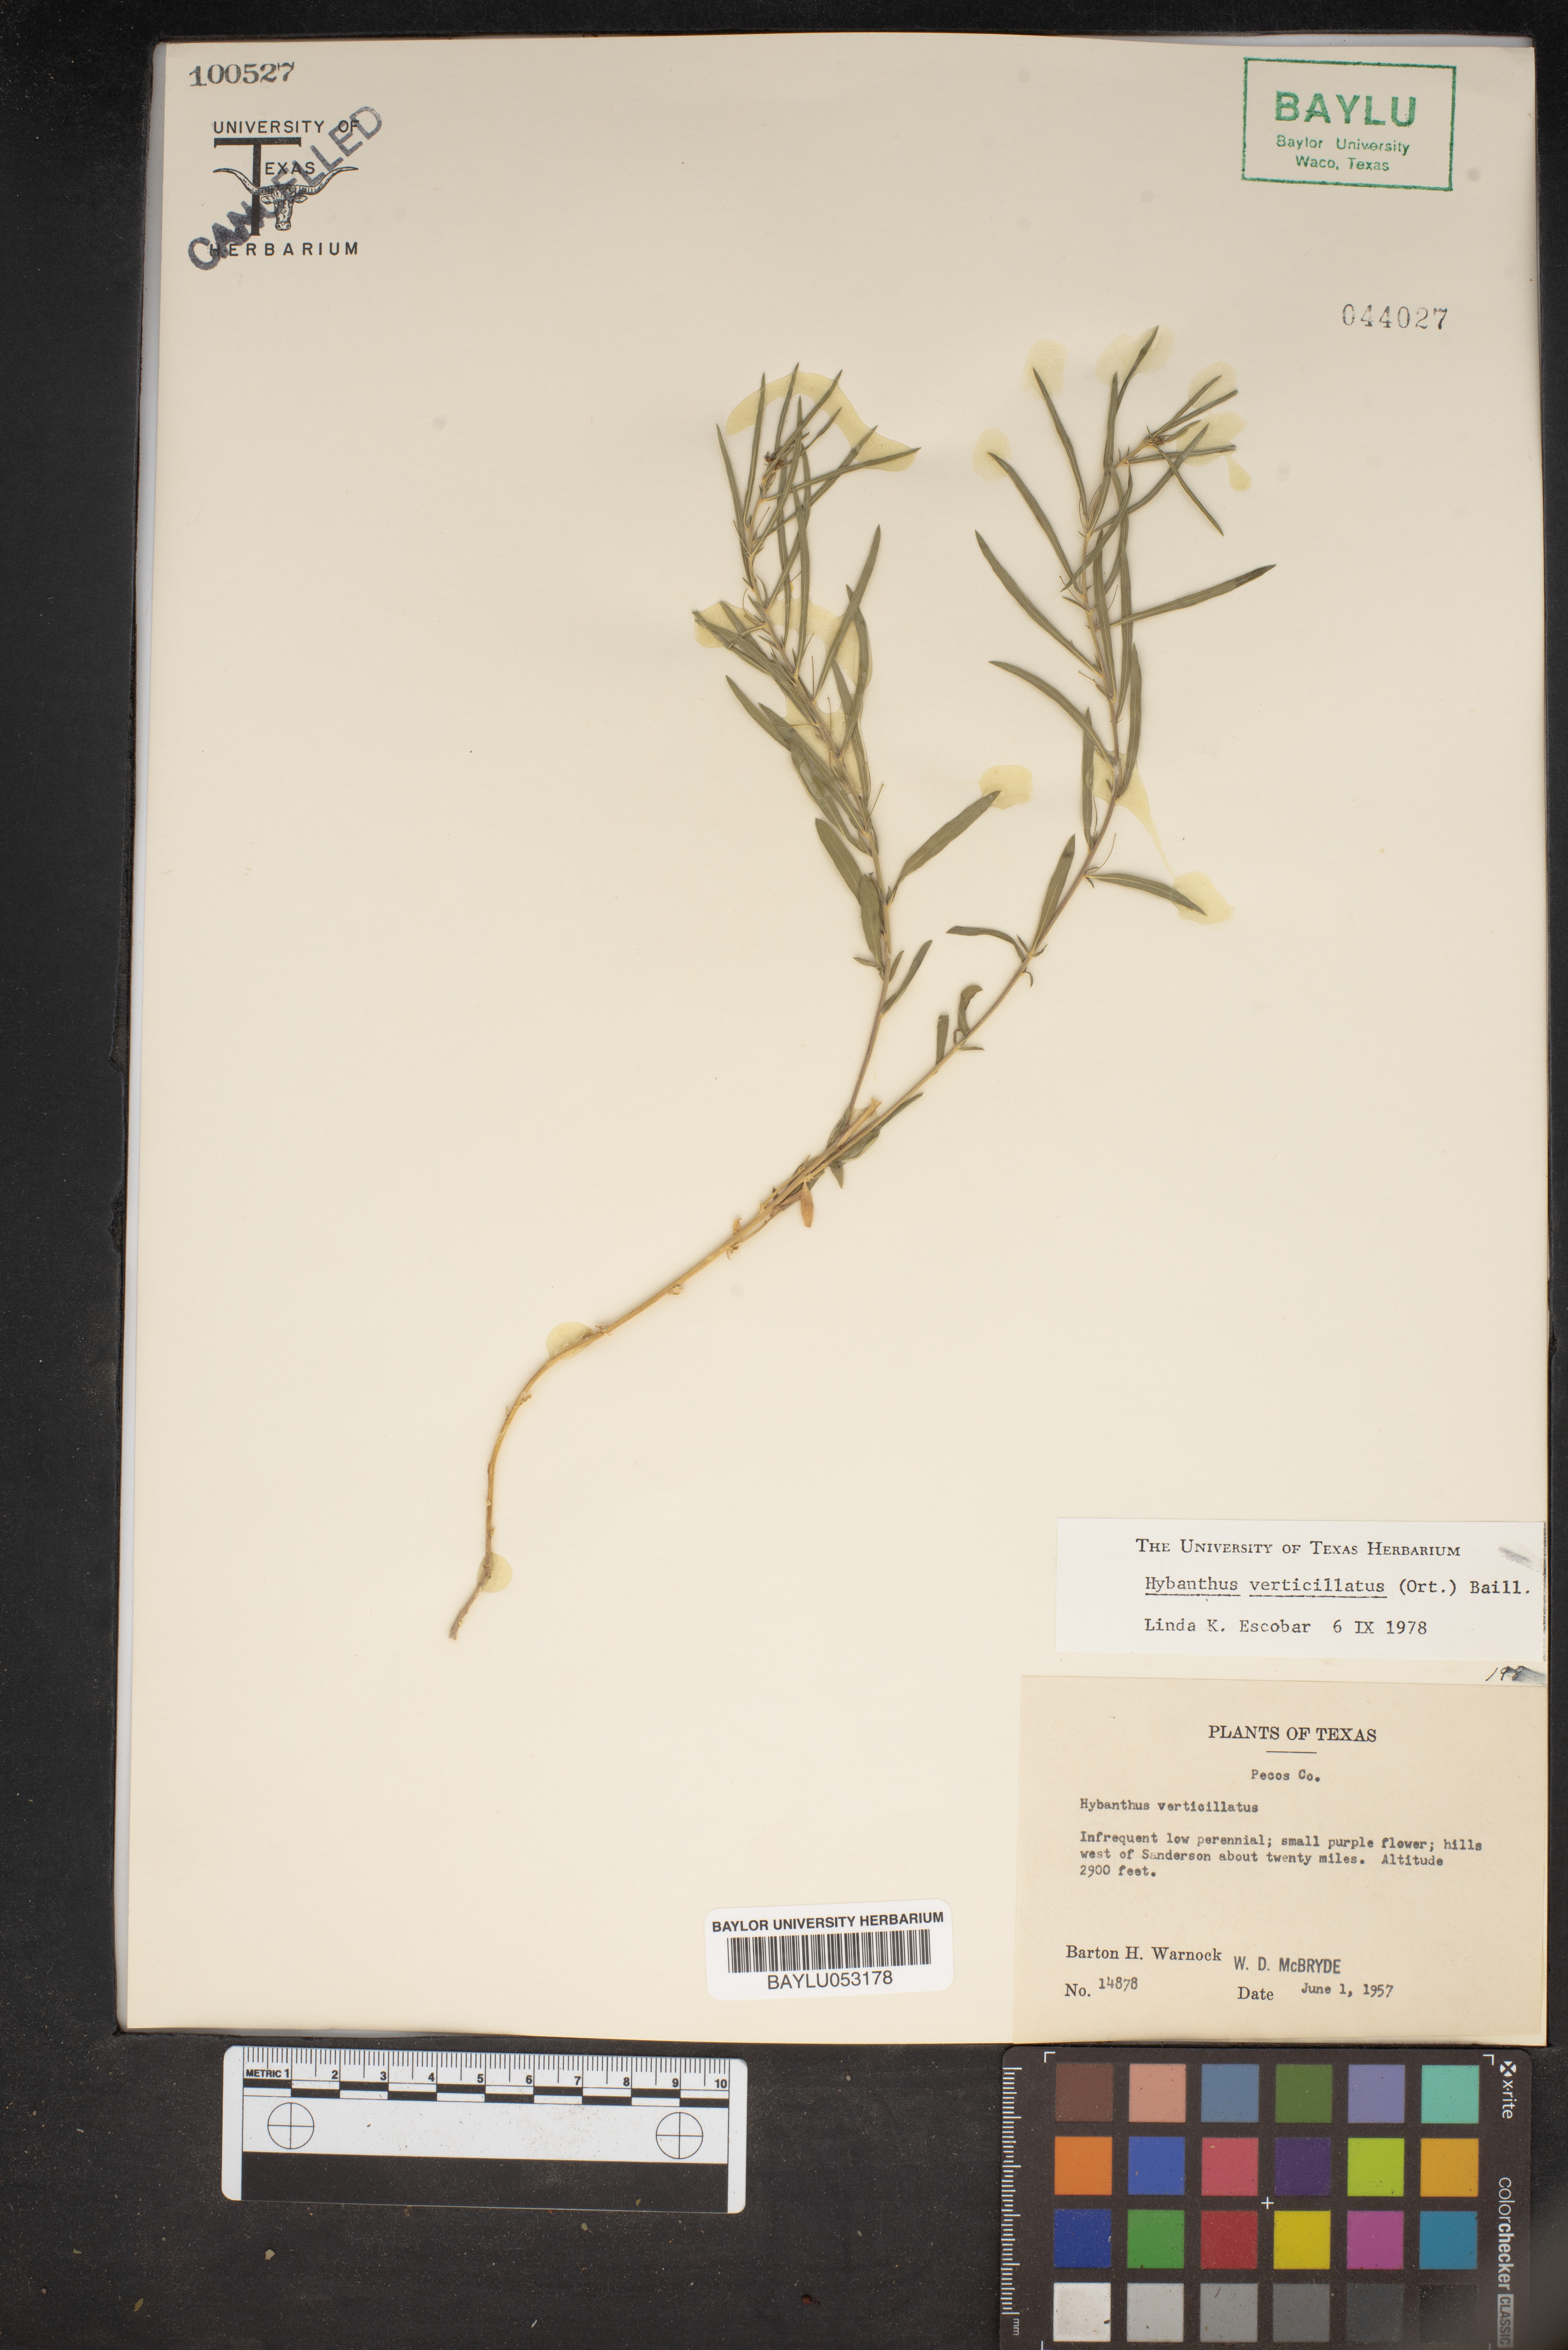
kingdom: Plantae
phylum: Tracheophyta
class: Magnoliopsida
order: Malpighiales
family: Violaceae
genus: Pombalia
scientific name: Pombalia verticillata
